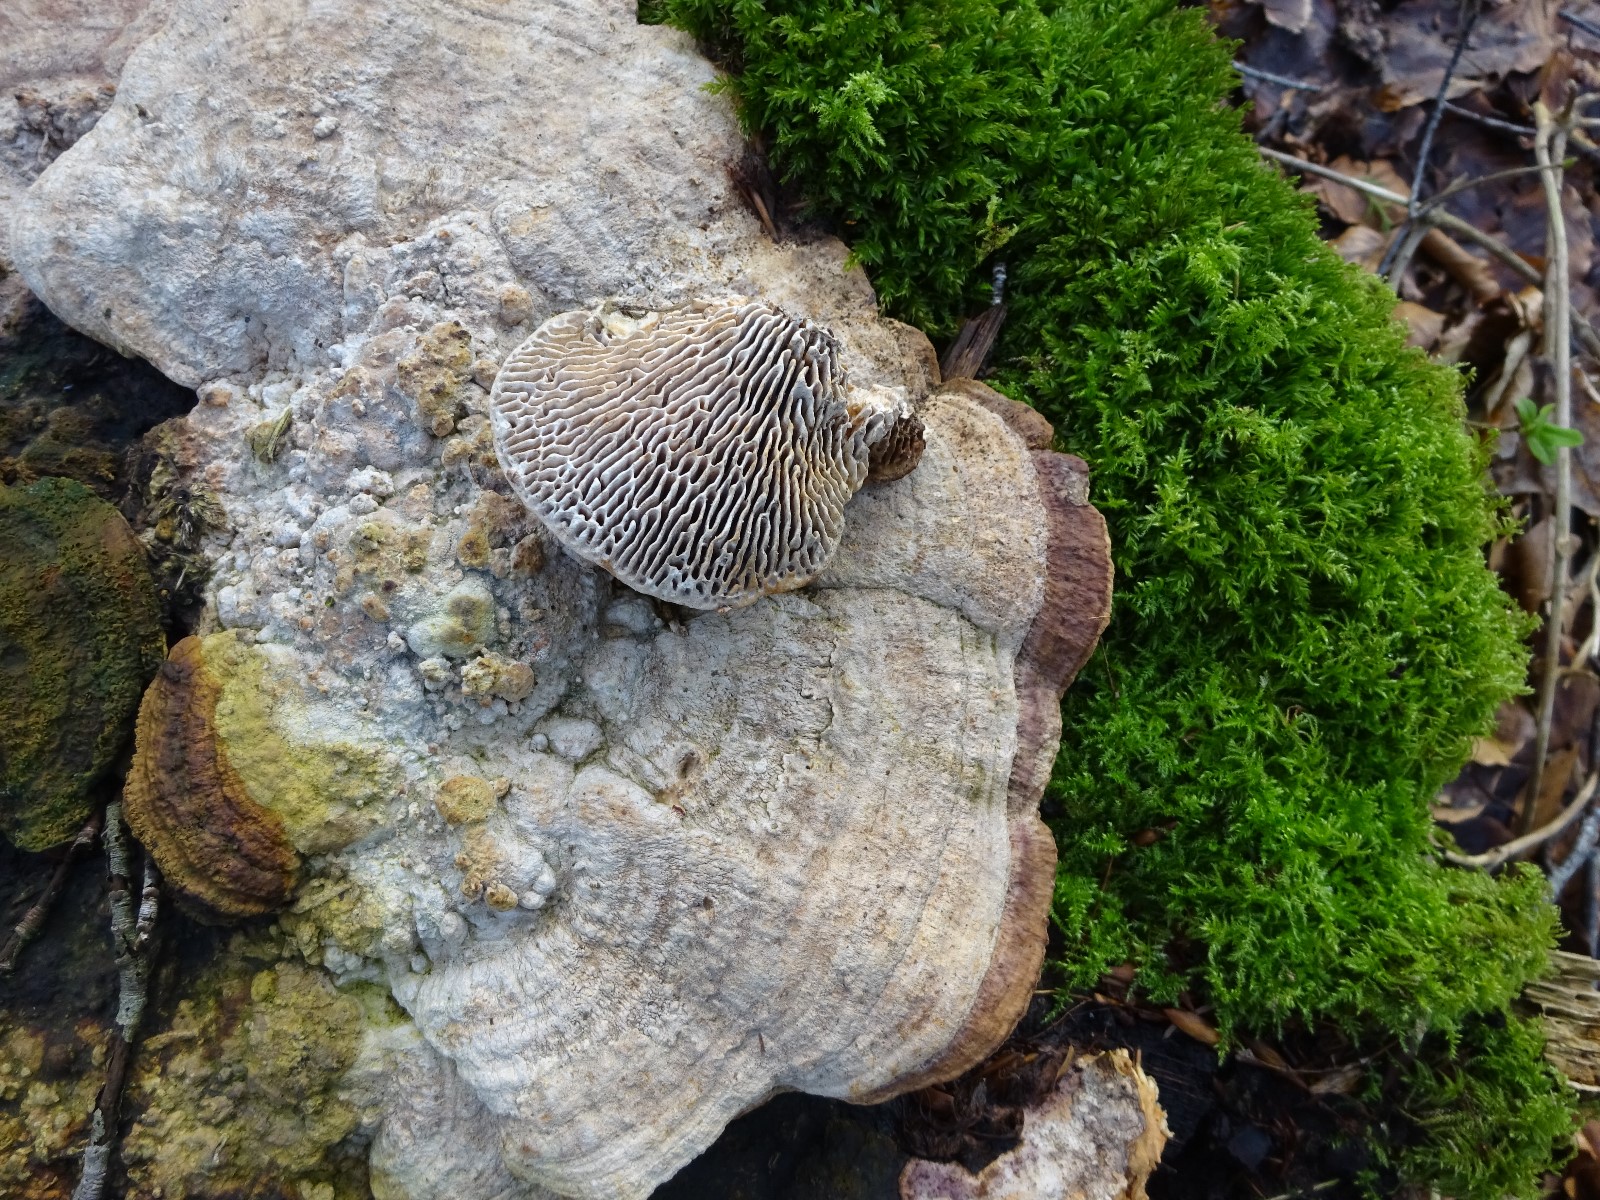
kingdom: Fungi
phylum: Basidiomycota
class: Agaricomycetes
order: Polyporales
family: Fomitopsidaceae
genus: Daedalea
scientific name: Daedalea quercina
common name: ege-labyrintsvamp
